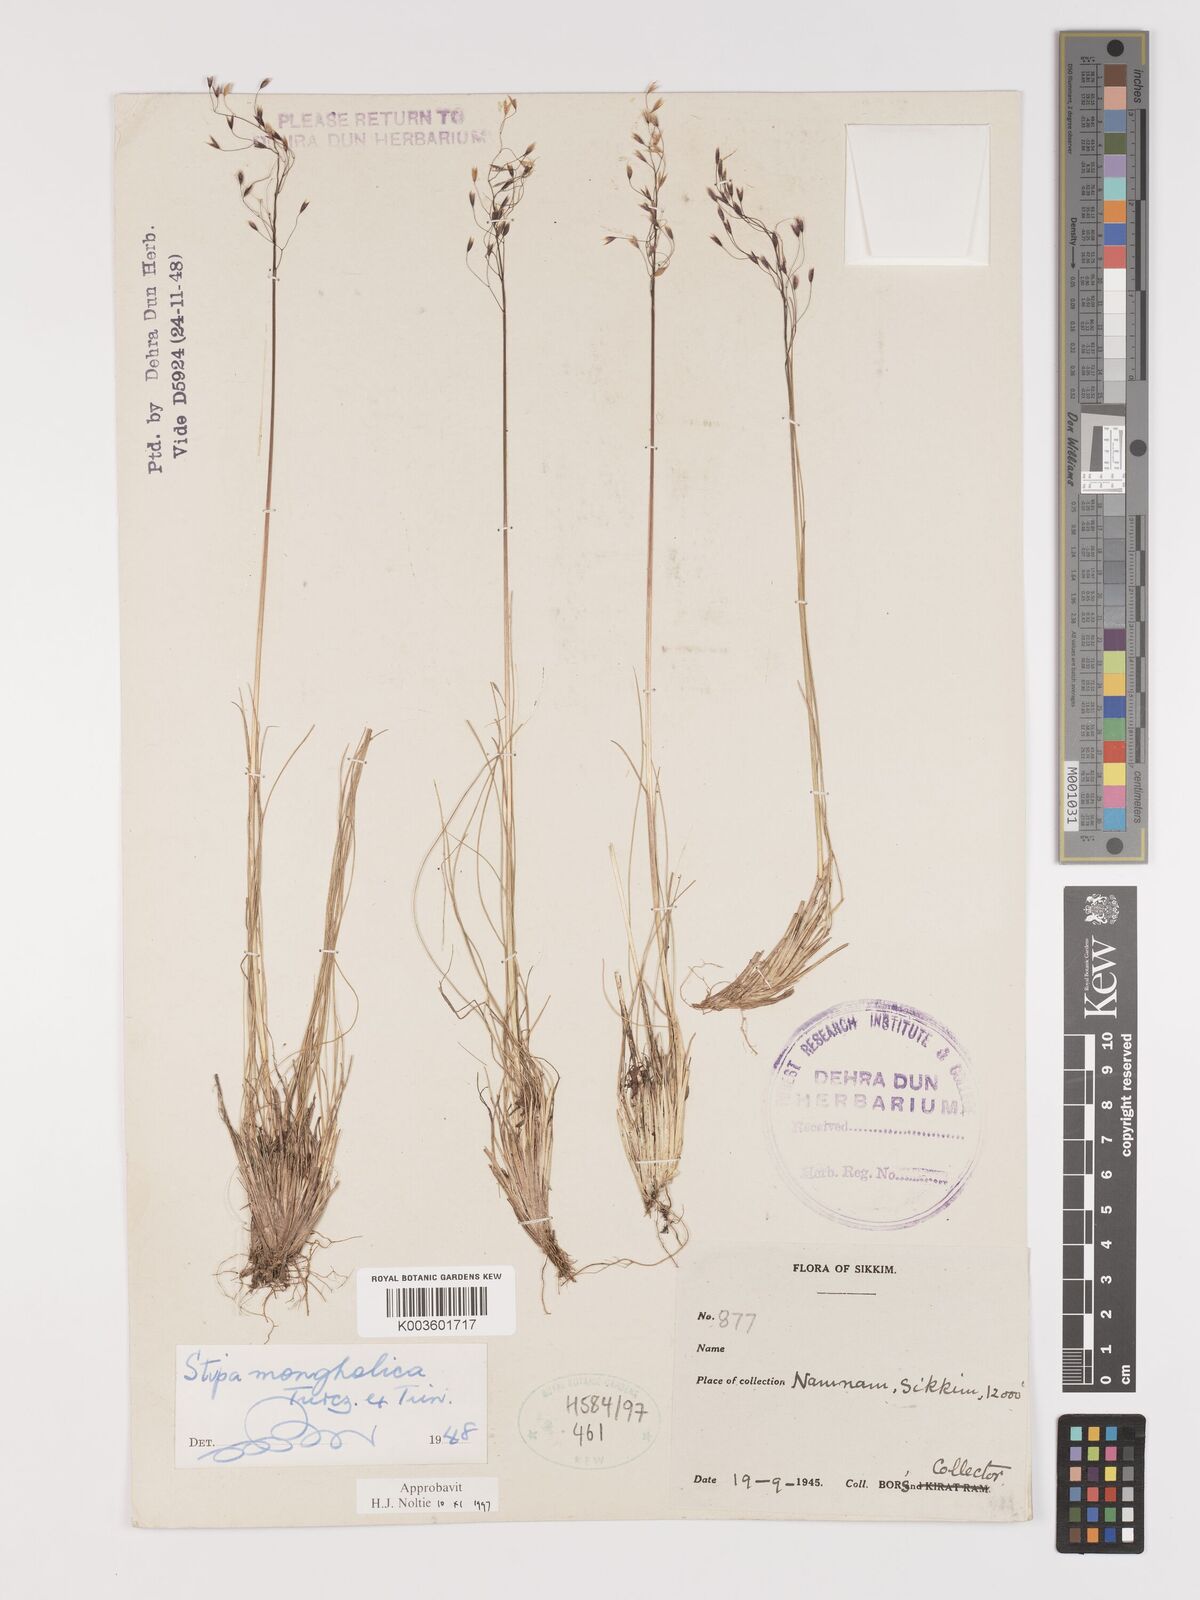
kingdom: Plantae
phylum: Tracheophyta
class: Liliopsida
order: Poales
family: Poaceae
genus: Ptilagrostis
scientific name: Ptilagrostis mongholica
